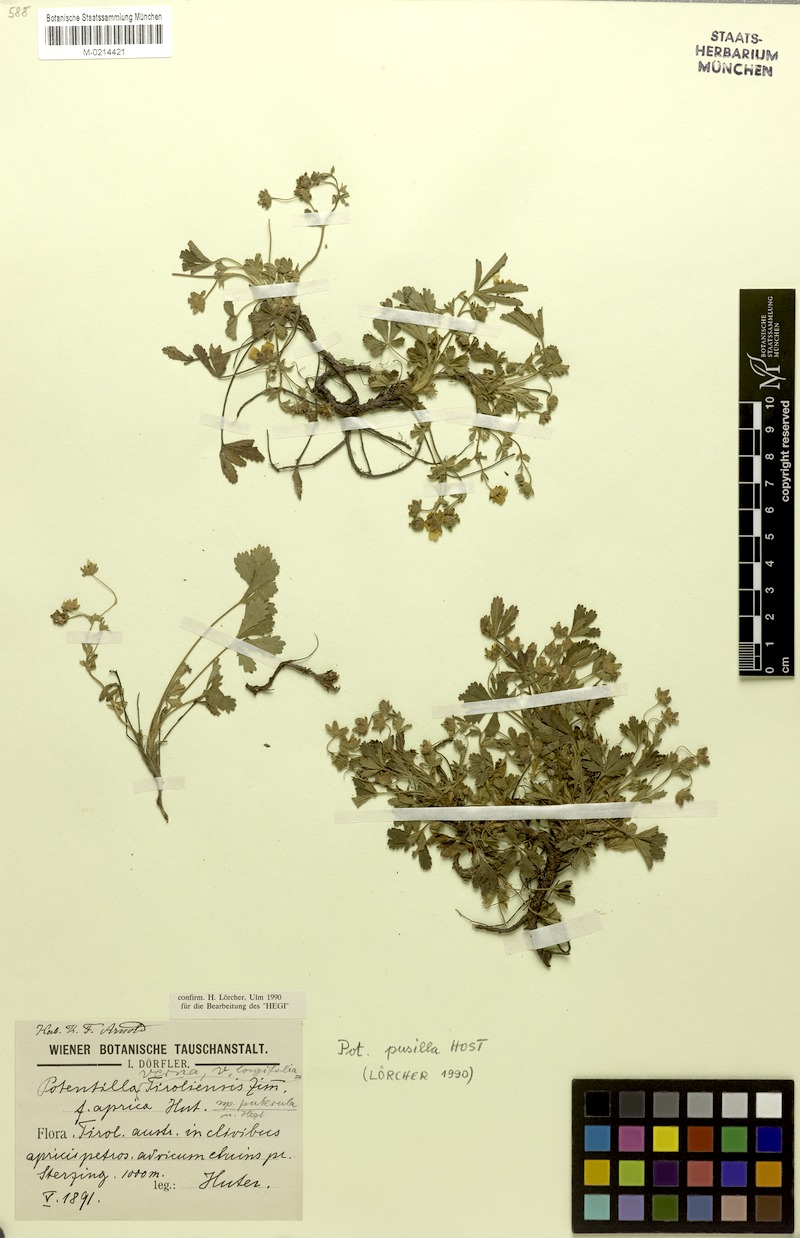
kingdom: Plantae
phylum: Tracheophyta
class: Magnoliopsida
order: Rosales
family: Rosaceae
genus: Potentilla
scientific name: Potentilla pusilla
